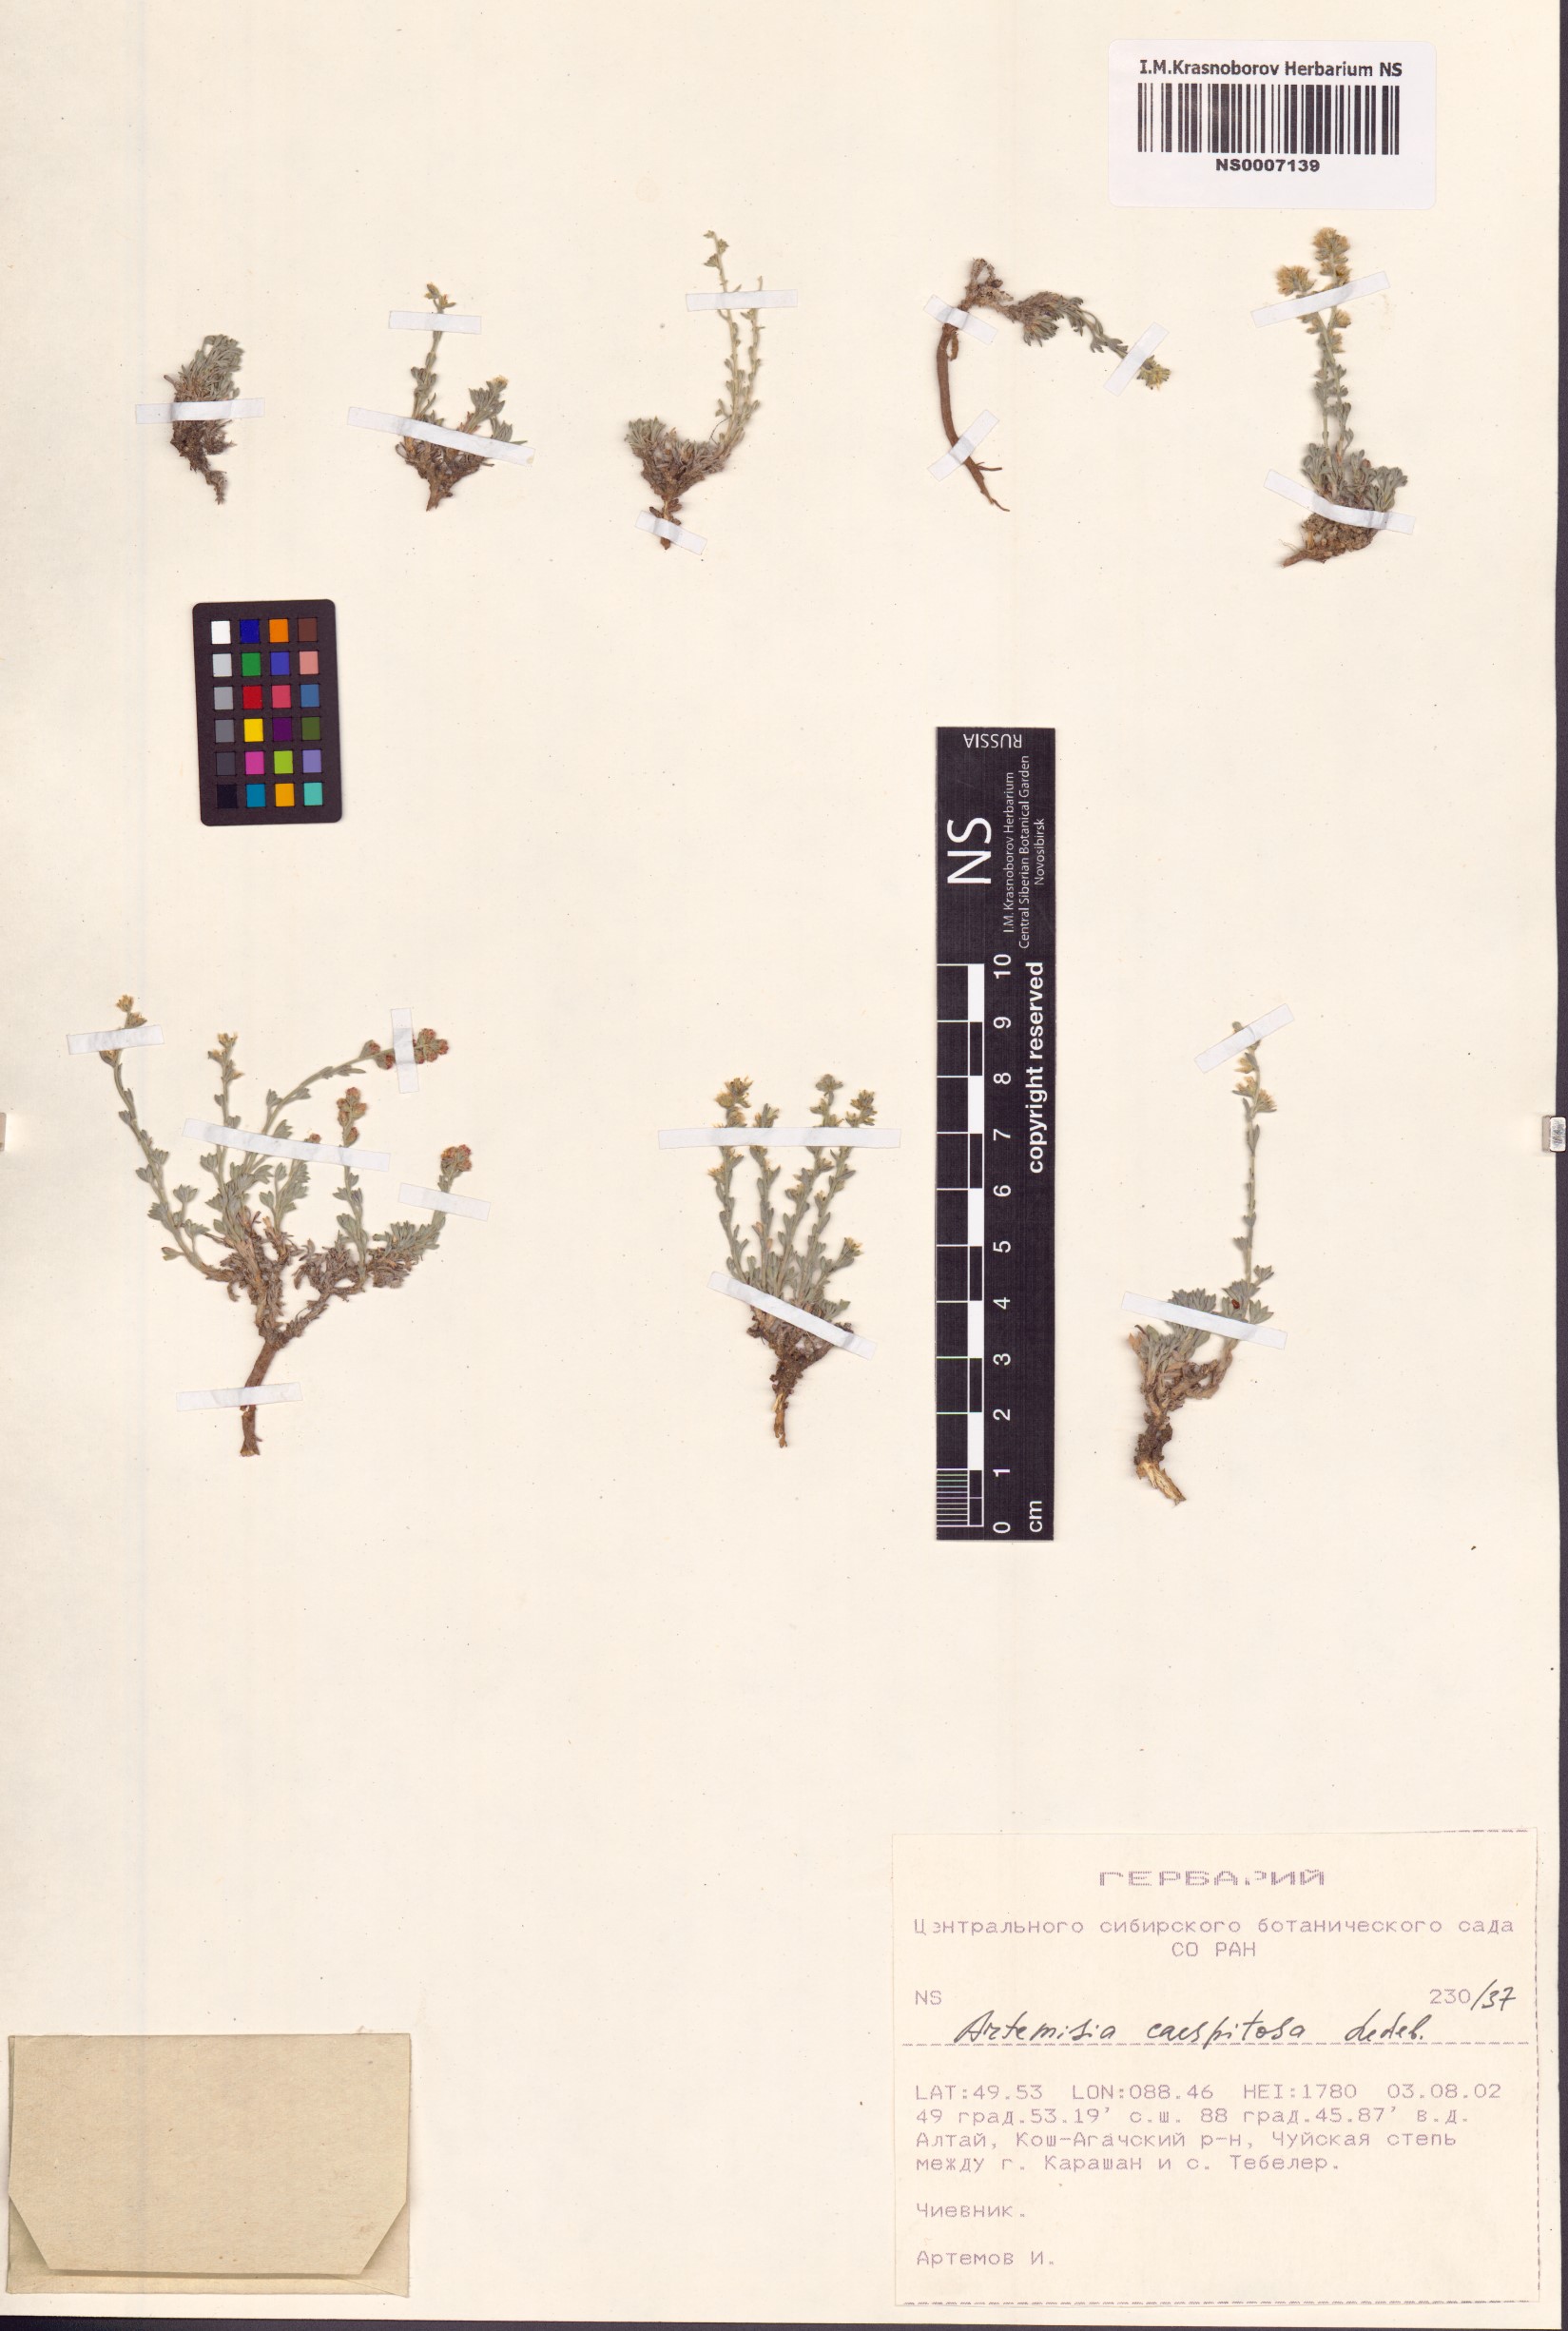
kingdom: Plantae
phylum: Tracheophyta
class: Magnoliopsida
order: Asterales
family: Asteraceae
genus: Artemisia
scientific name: Artemisia caespitosa
